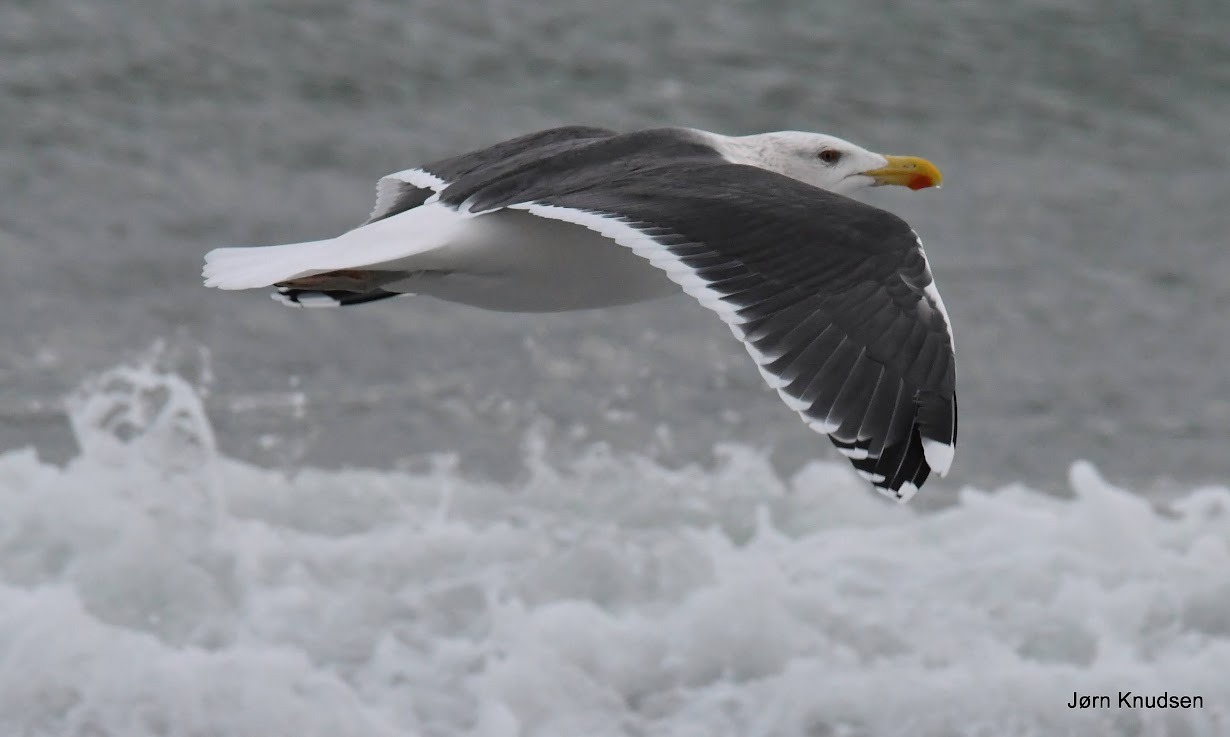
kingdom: Animalia
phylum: Chordata
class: Aves
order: Charadriiformes
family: Laridae
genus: Larus
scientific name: Larus marinus
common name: Svartbag
